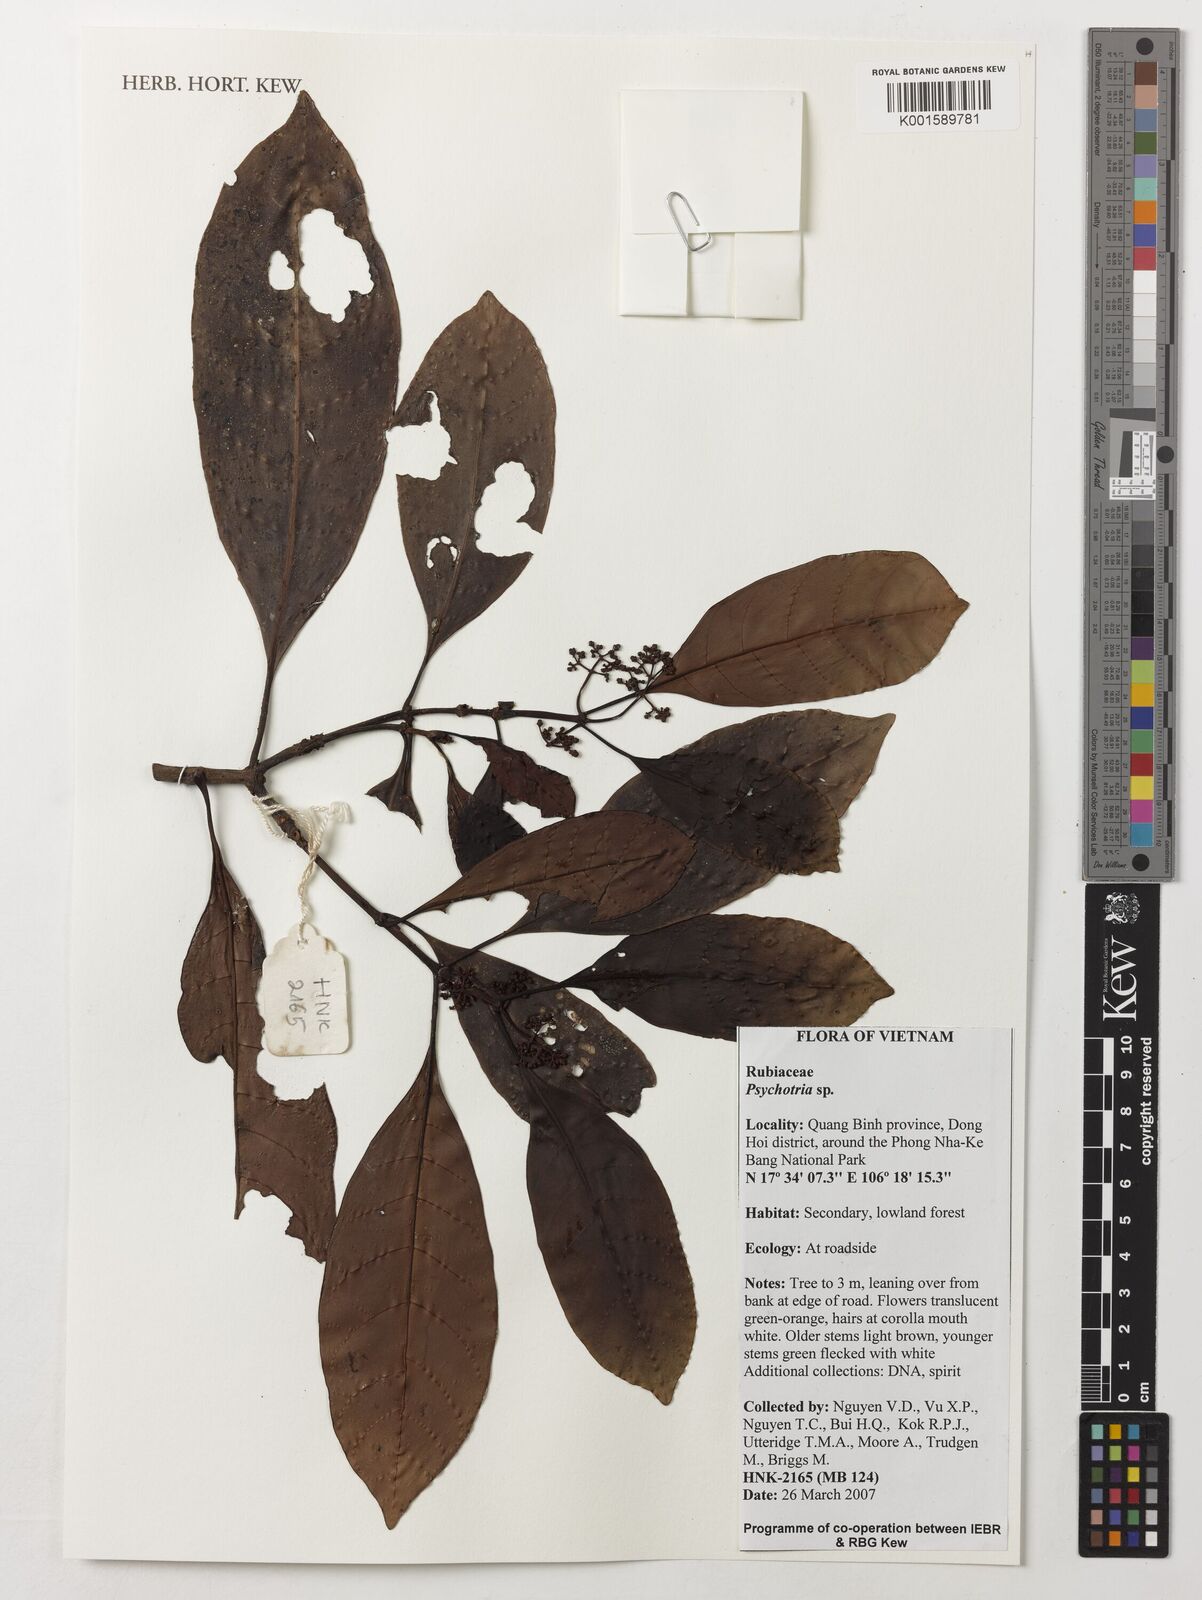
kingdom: Plantae
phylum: Tracheophyta
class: Magnoliopsida
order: Gentianales
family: Rubiaceae
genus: Psychotria
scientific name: Psychotria
